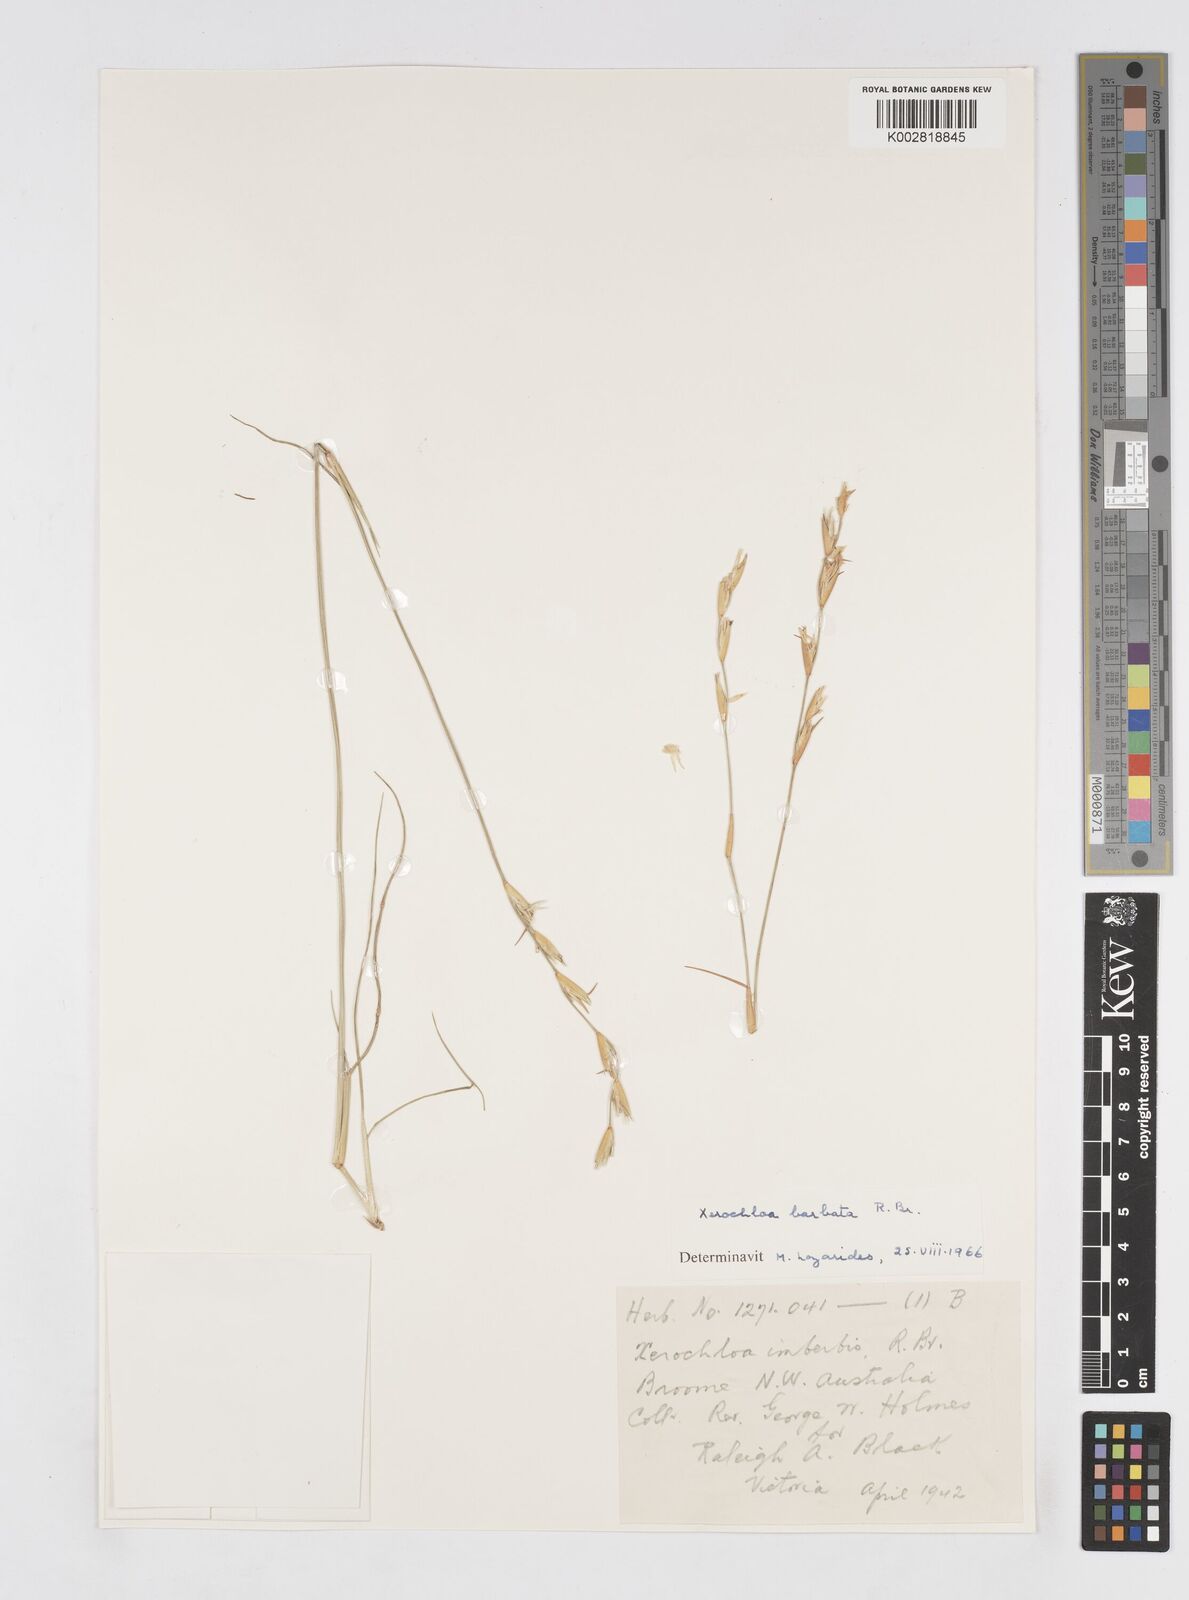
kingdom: Plantae
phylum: Tracheophyta
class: Liliopsida
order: Poales
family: Poaceae
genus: Xerochloa
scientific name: Xerochloa barbata
